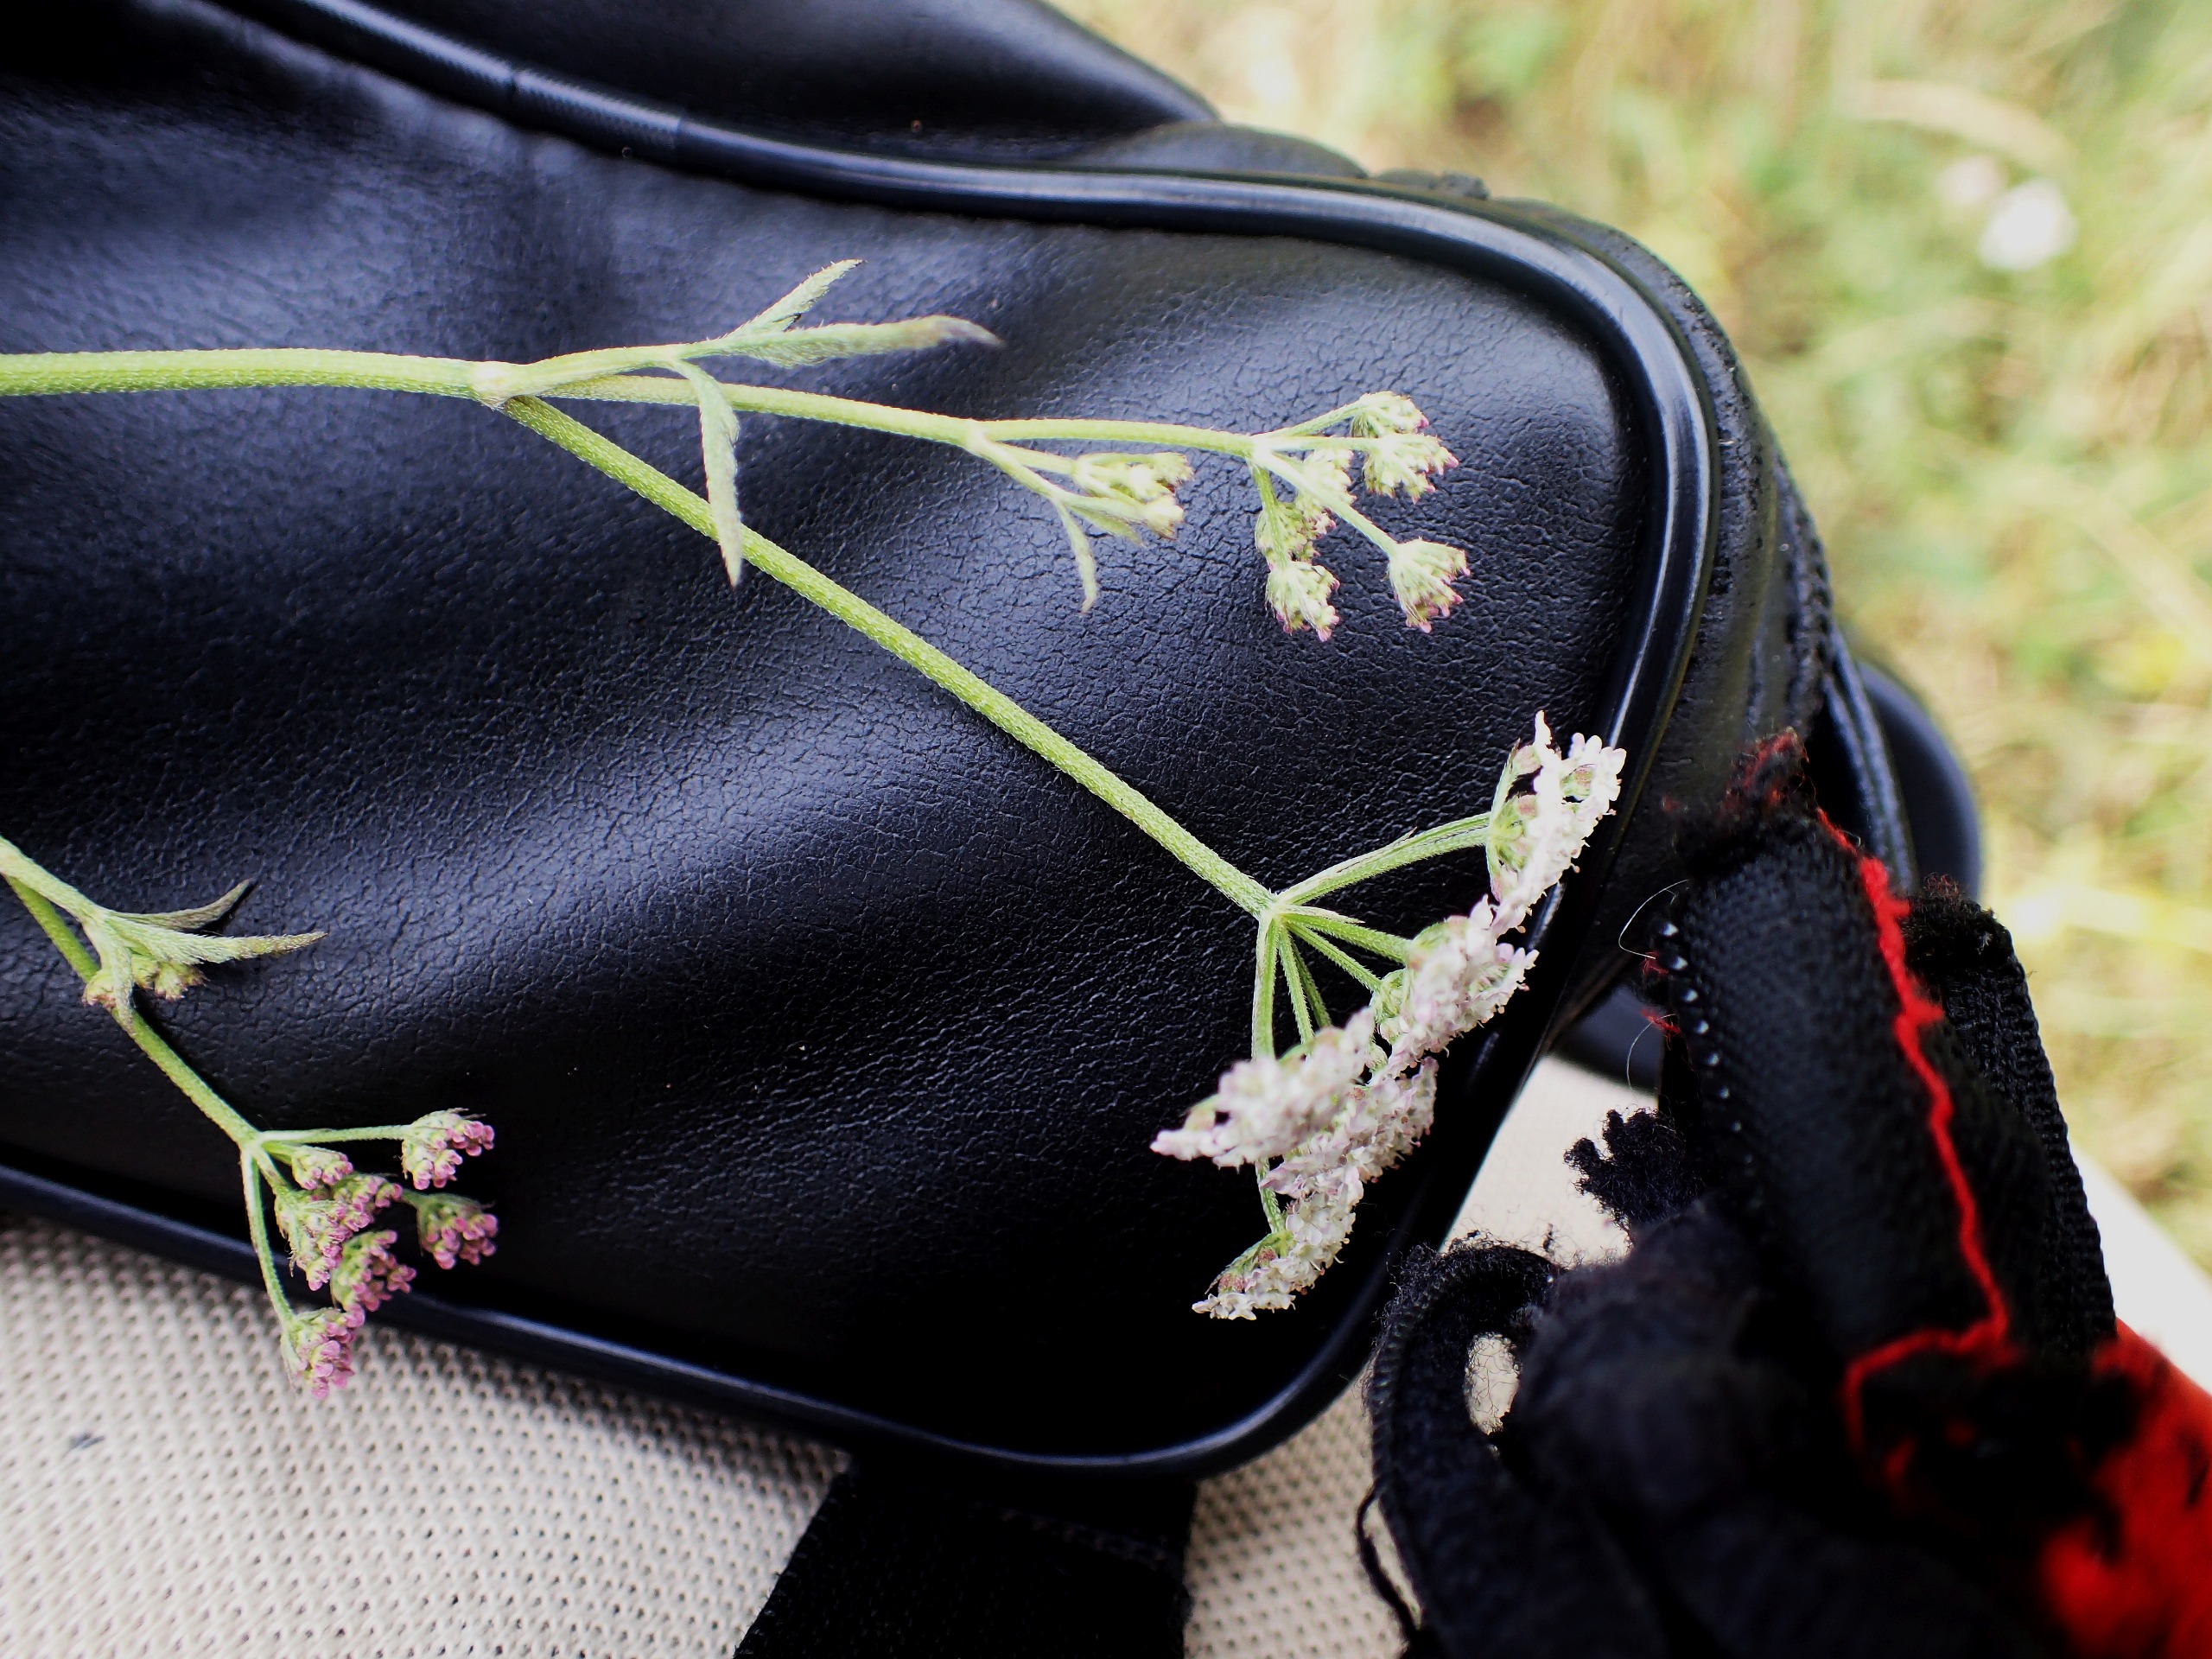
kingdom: Plantae
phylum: Tracheophyta
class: Magnoliopsida
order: Apiales
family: Apiaceae
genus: Torilis
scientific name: Torilis japonica
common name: Hvas randfrø
